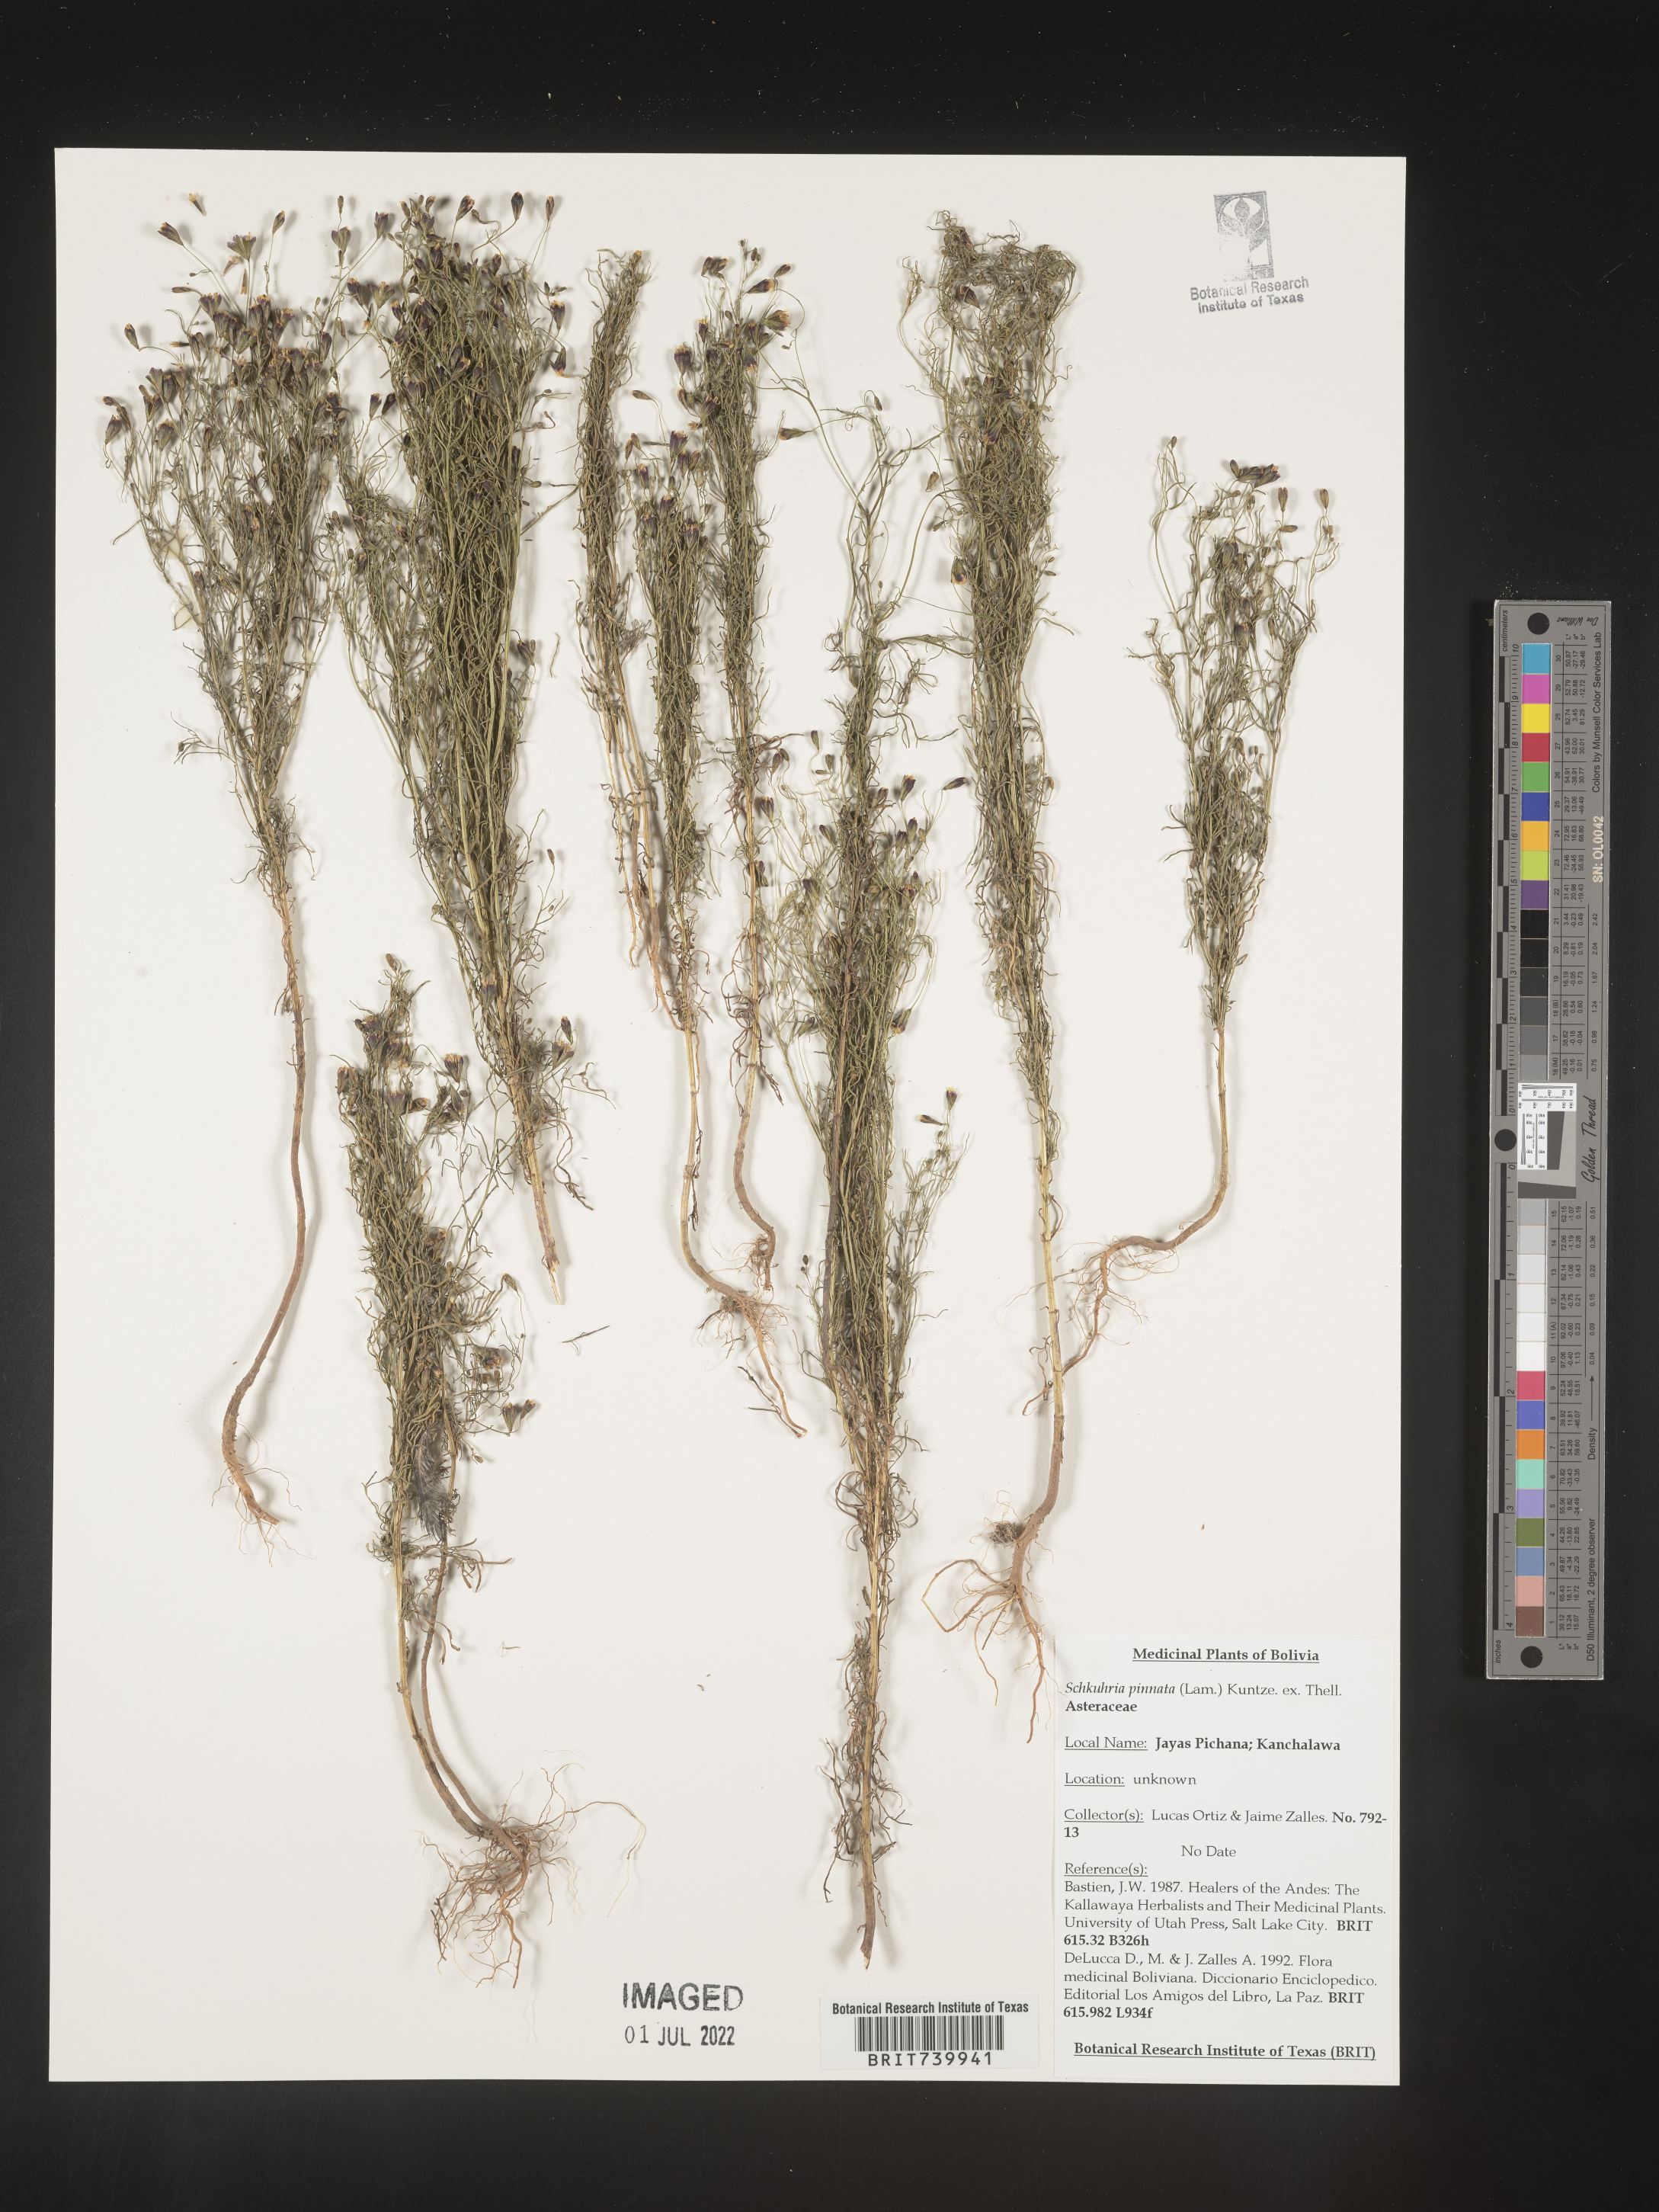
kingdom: Plantae
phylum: Tracheophyta
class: Magnoliopsida
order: Asterales
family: Asteraceae
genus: Schkuhria
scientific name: Schkuhria
